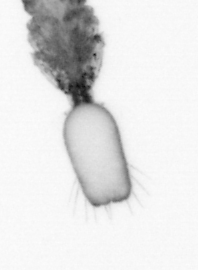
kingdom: Animalia
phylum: Arthropoda
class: Copepoda
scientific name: Copepoda
